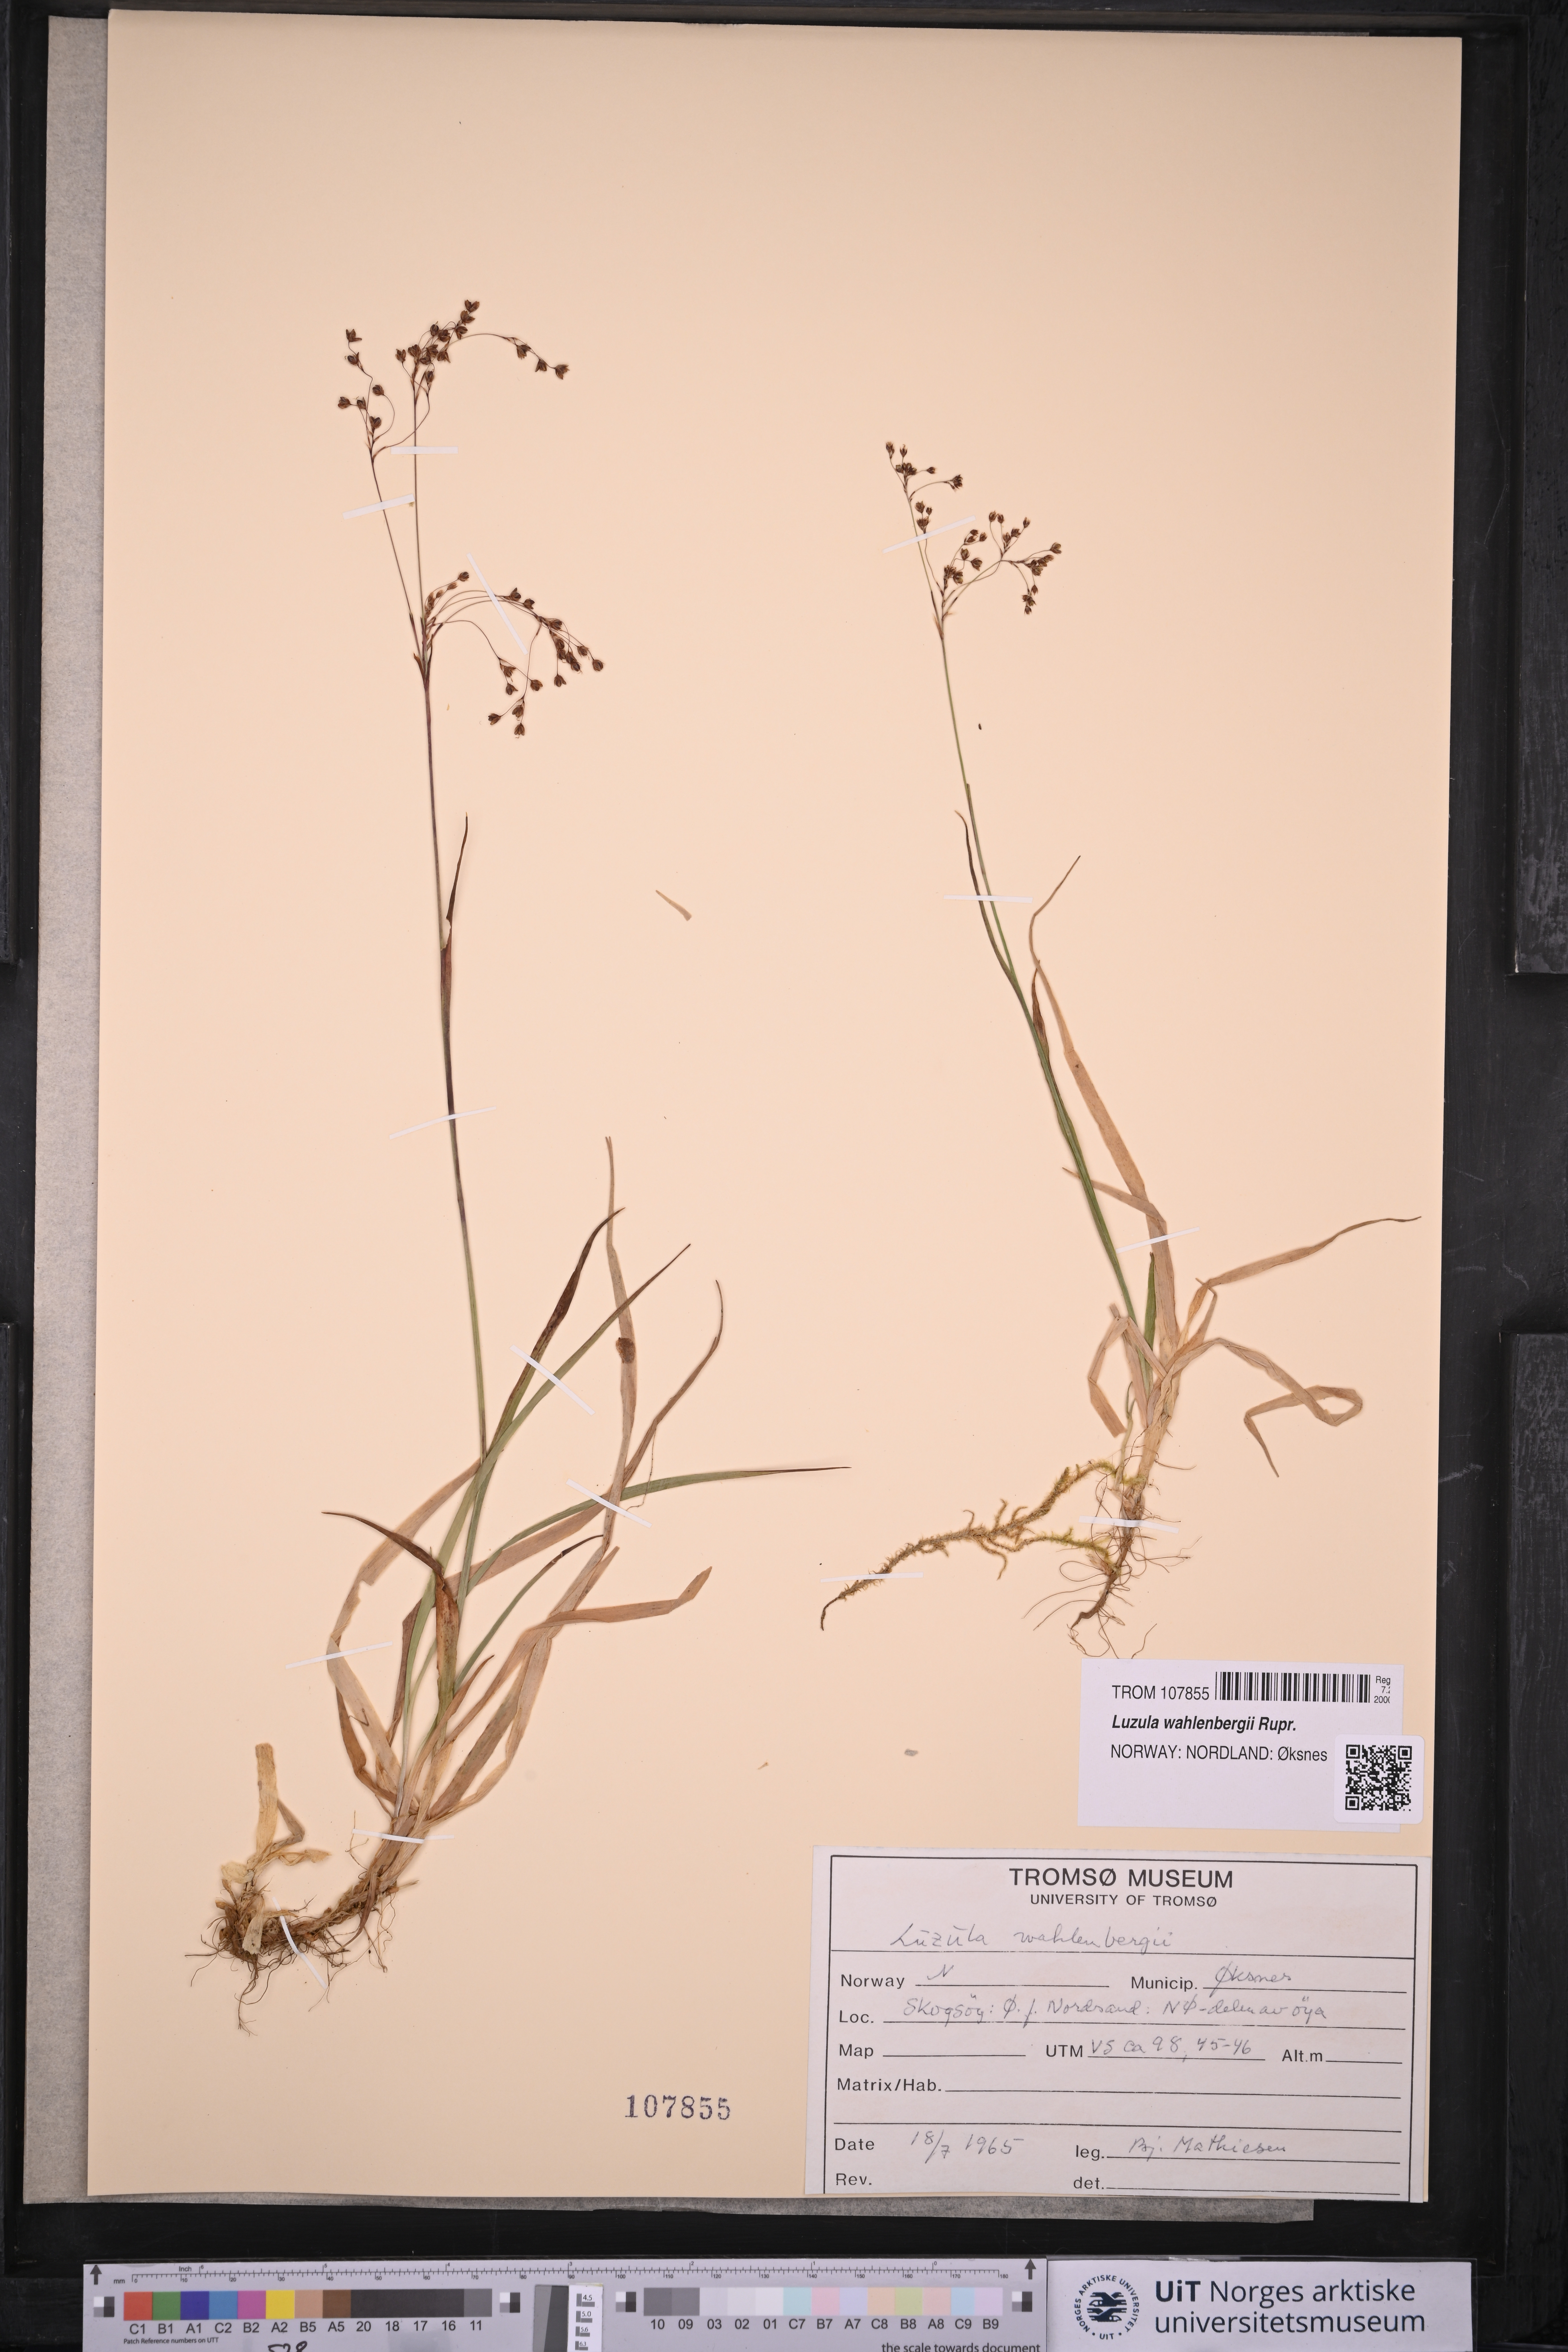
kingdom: Plantae
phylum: Tracheophyta
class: Liliopsida
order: Poales
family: Juncaceae
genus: Luzula
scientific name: Luzula wahlenbergii
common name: Wahlenberg's wood-rush
